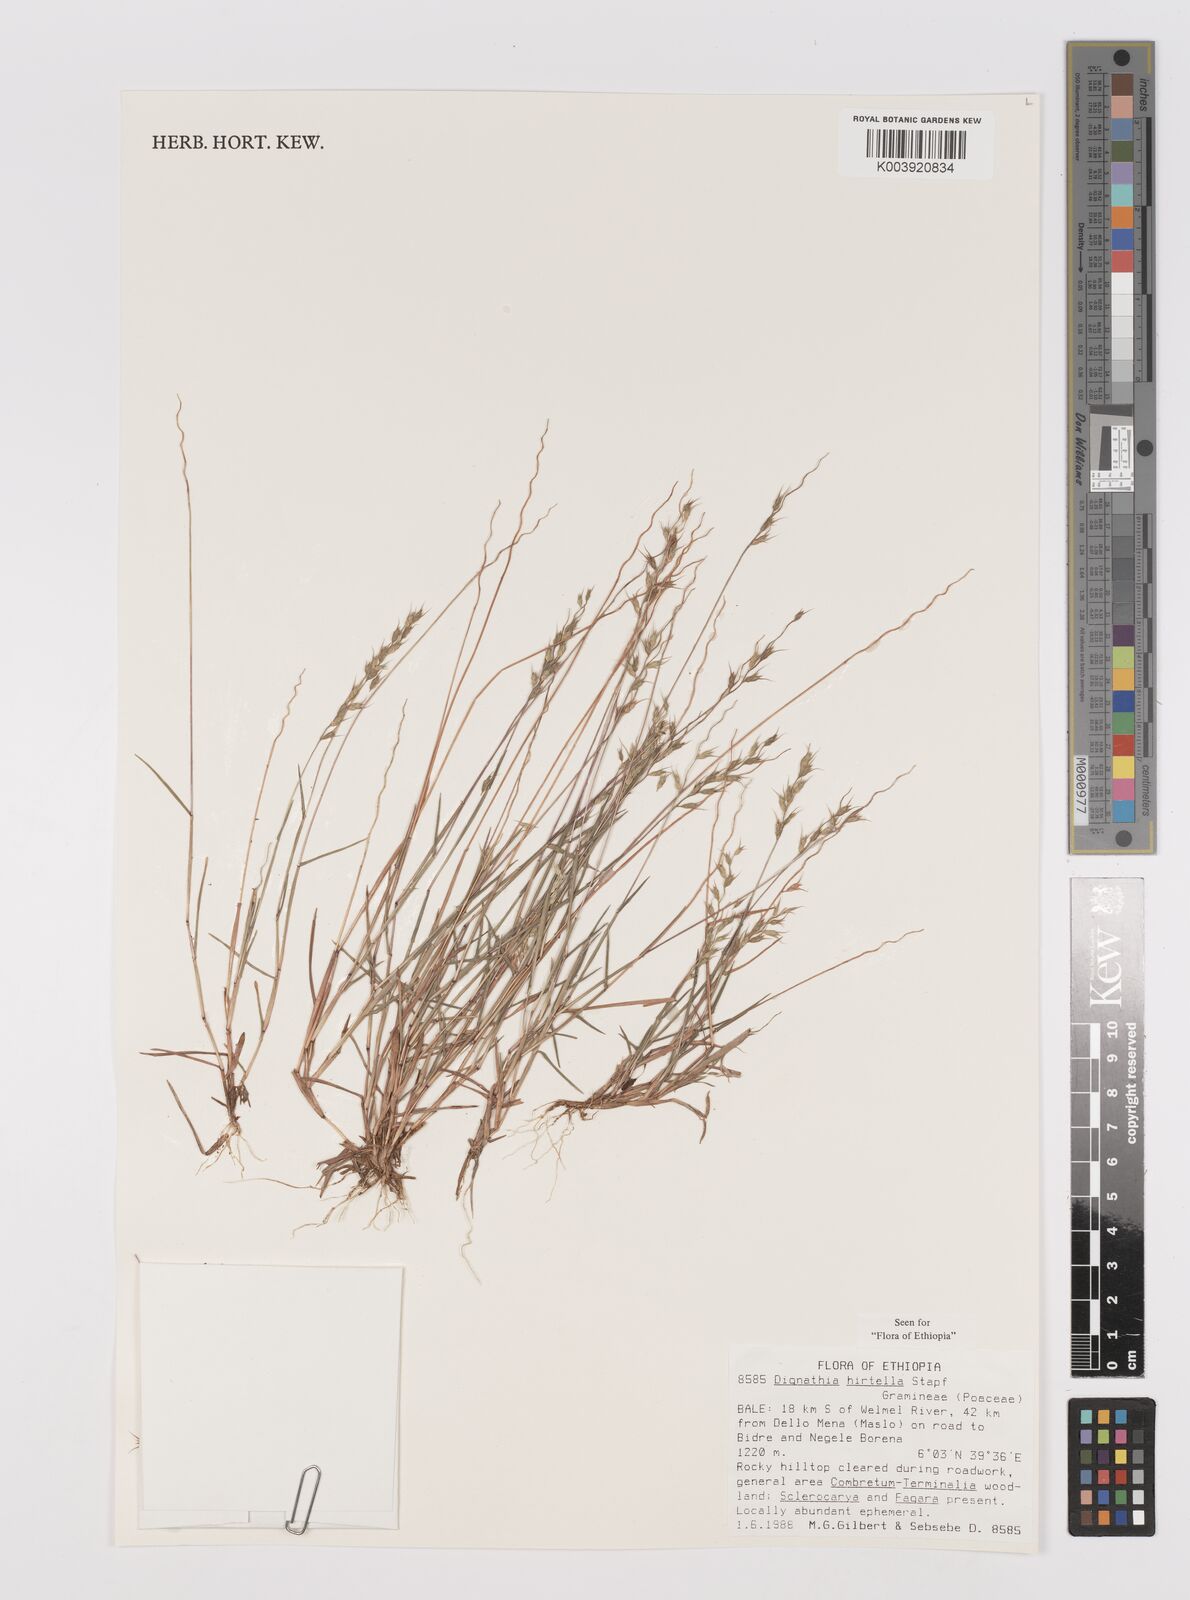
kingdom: Plantae
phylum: Tracheophyta
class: Liliopsida
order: Poales
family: Poaceae
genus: Dignathia
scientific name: Dignathia hirtella
